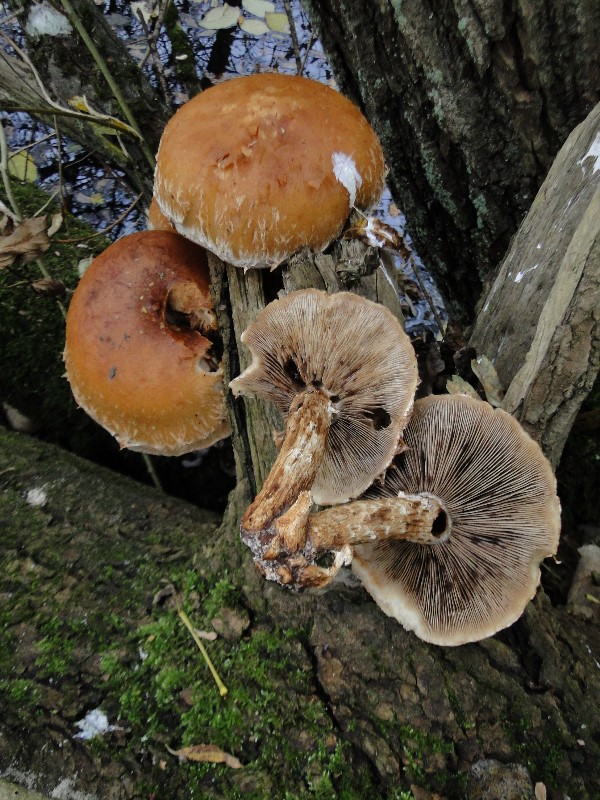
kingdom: Fungi
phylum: Basidiomycota
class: Agaricomycetes
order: Agaricales
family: Strophariaceae
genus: Pholiota
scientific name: Pholiota populnea
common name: poppel-kæmpeskælhat
